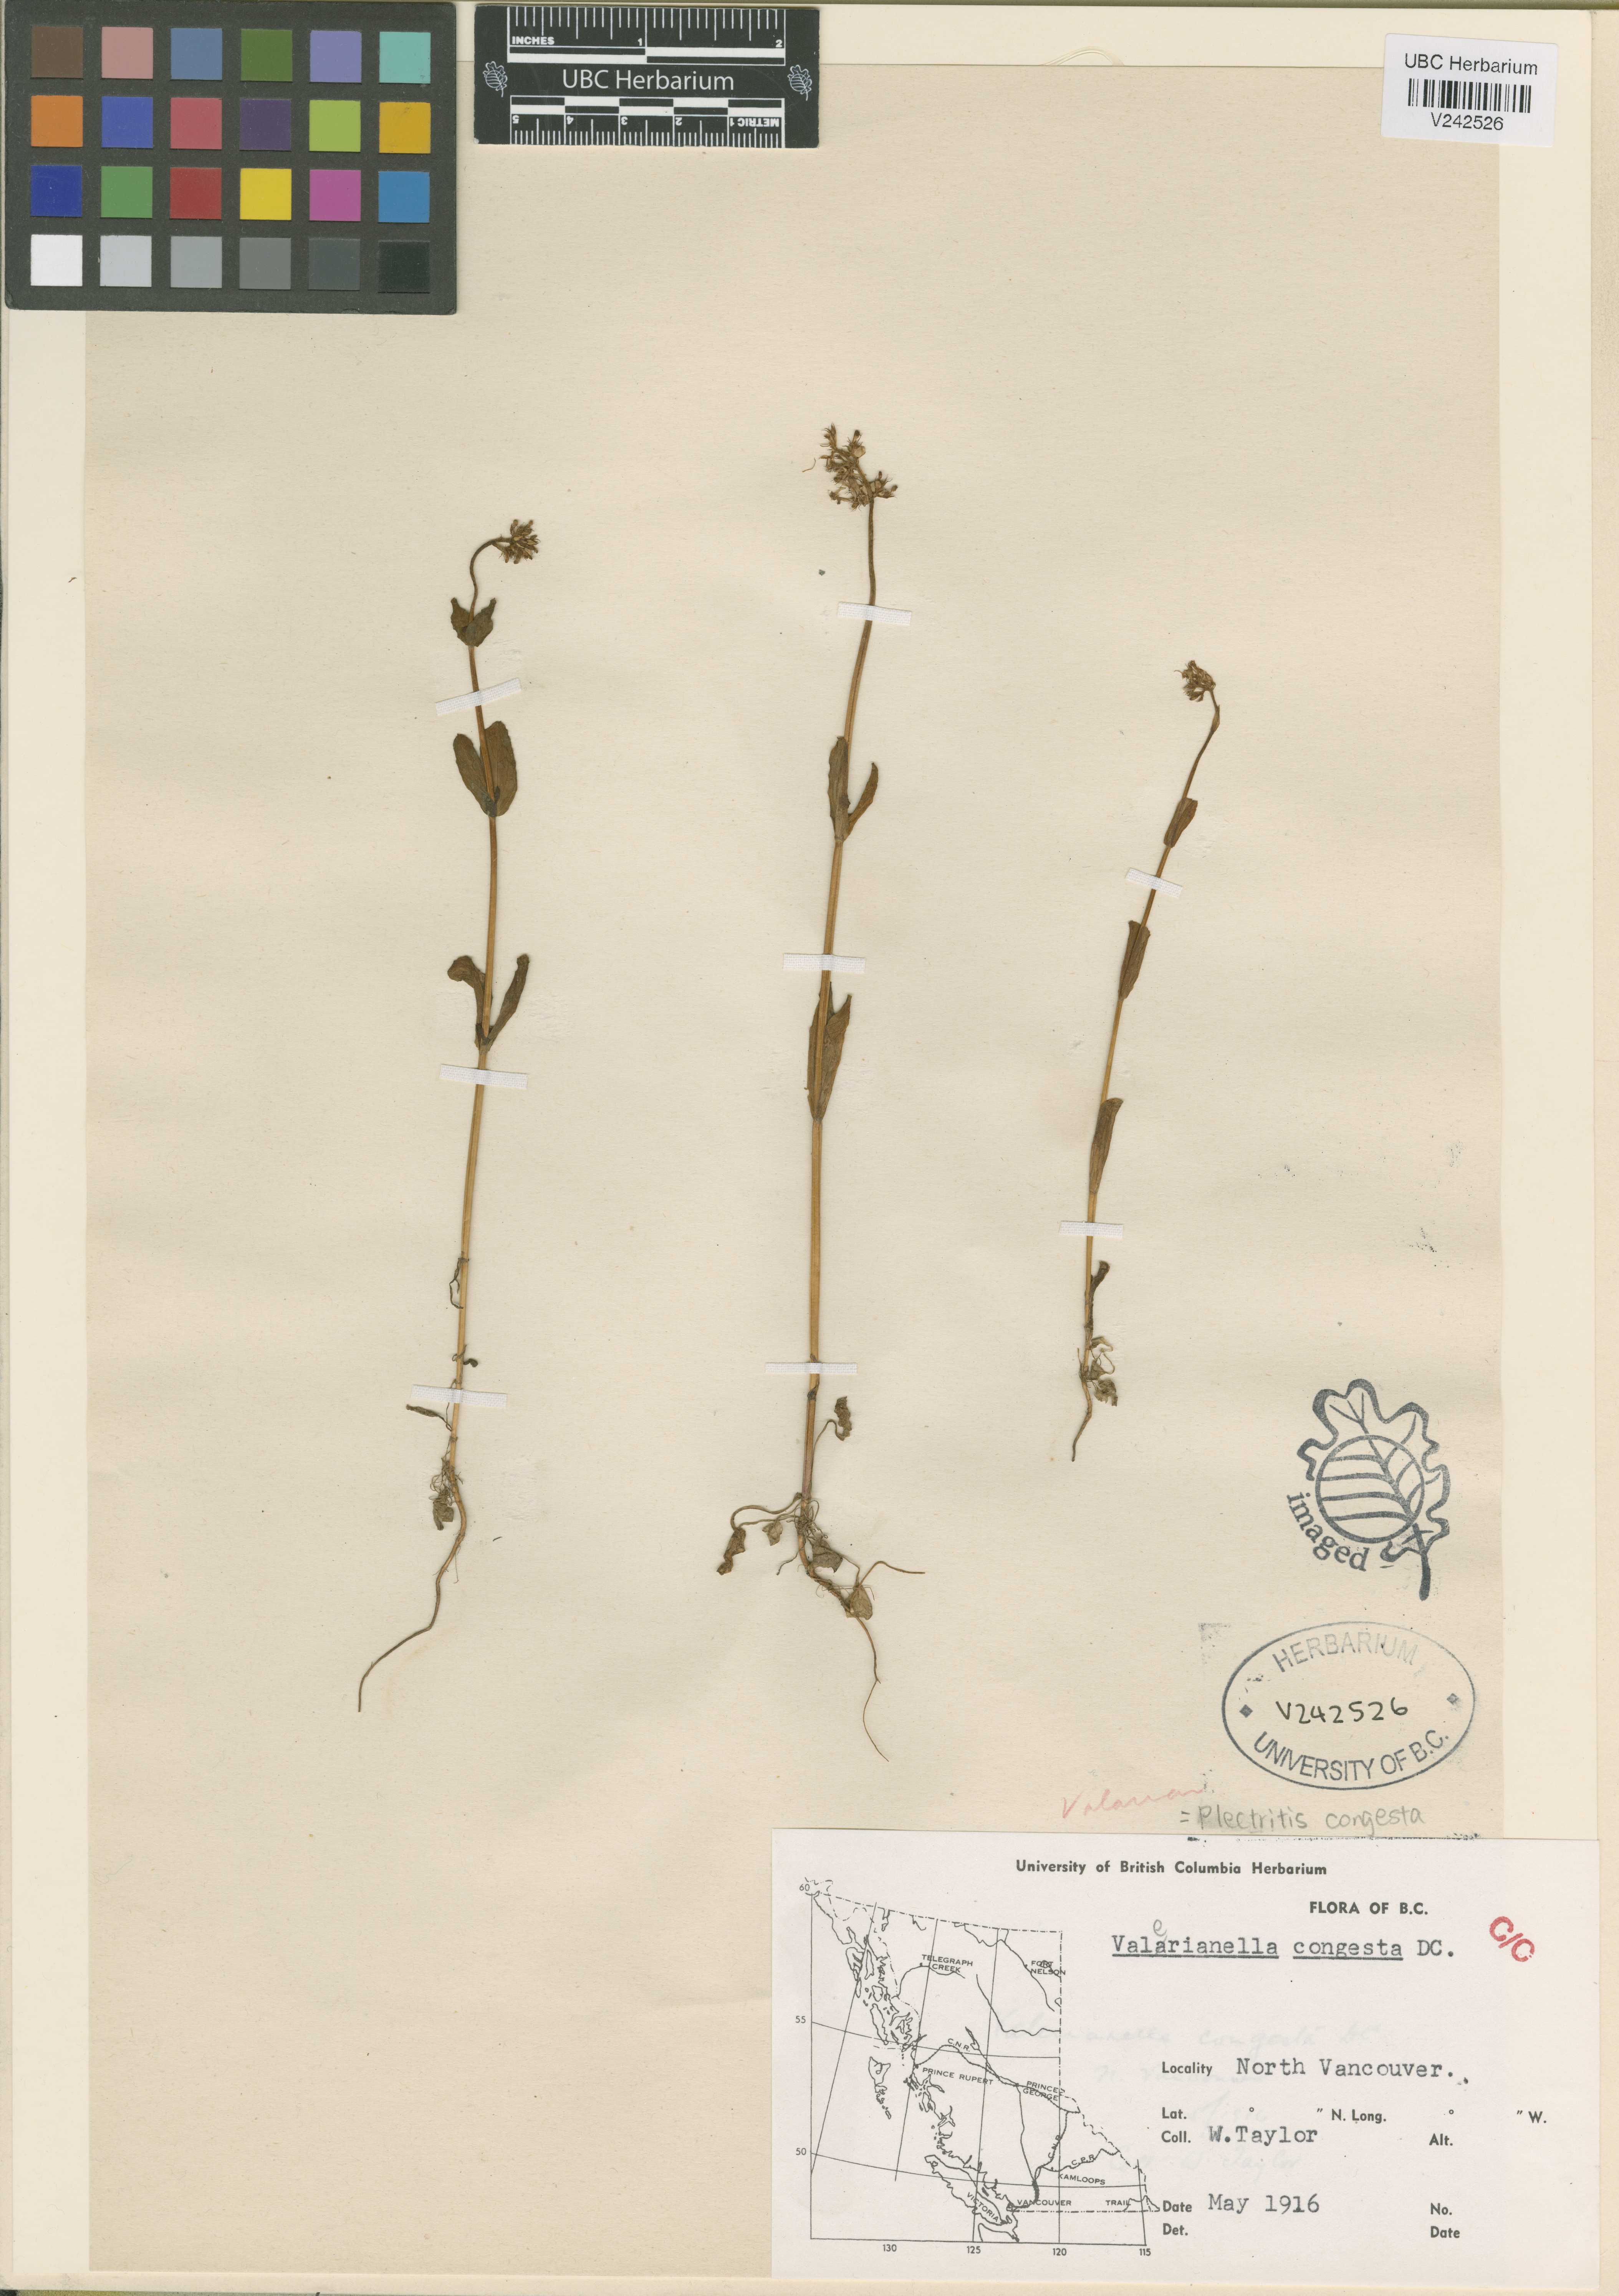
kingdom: Plantae
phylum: Tracheophyta
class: Magnoliopsida
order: Dipsacales
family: Caprifoliaceae
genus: Plectritis
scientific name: Plectritis congesta
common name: Pink plectritis
